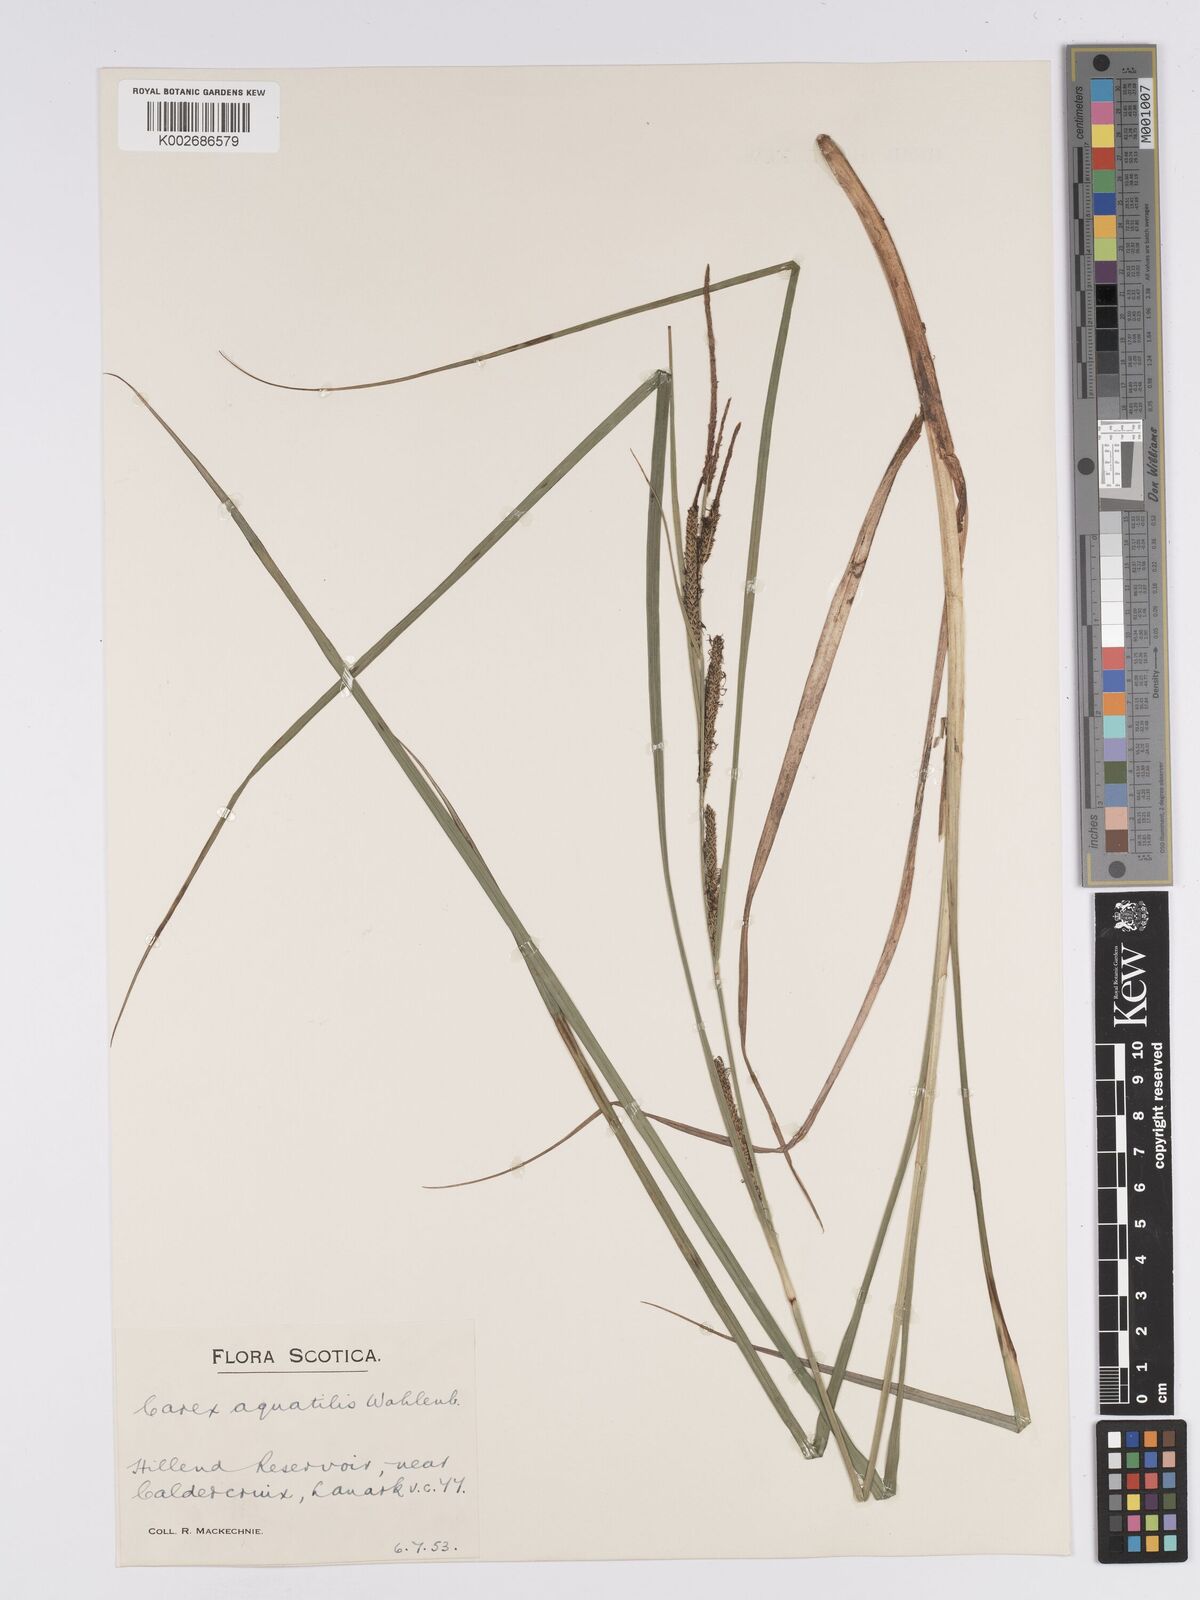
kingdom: Plantae
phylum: Tracheophyta
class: Liliopsida
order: Poales
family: Cyperaceae
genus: Carex
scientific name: Carex aquatilis
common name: Water sedge
